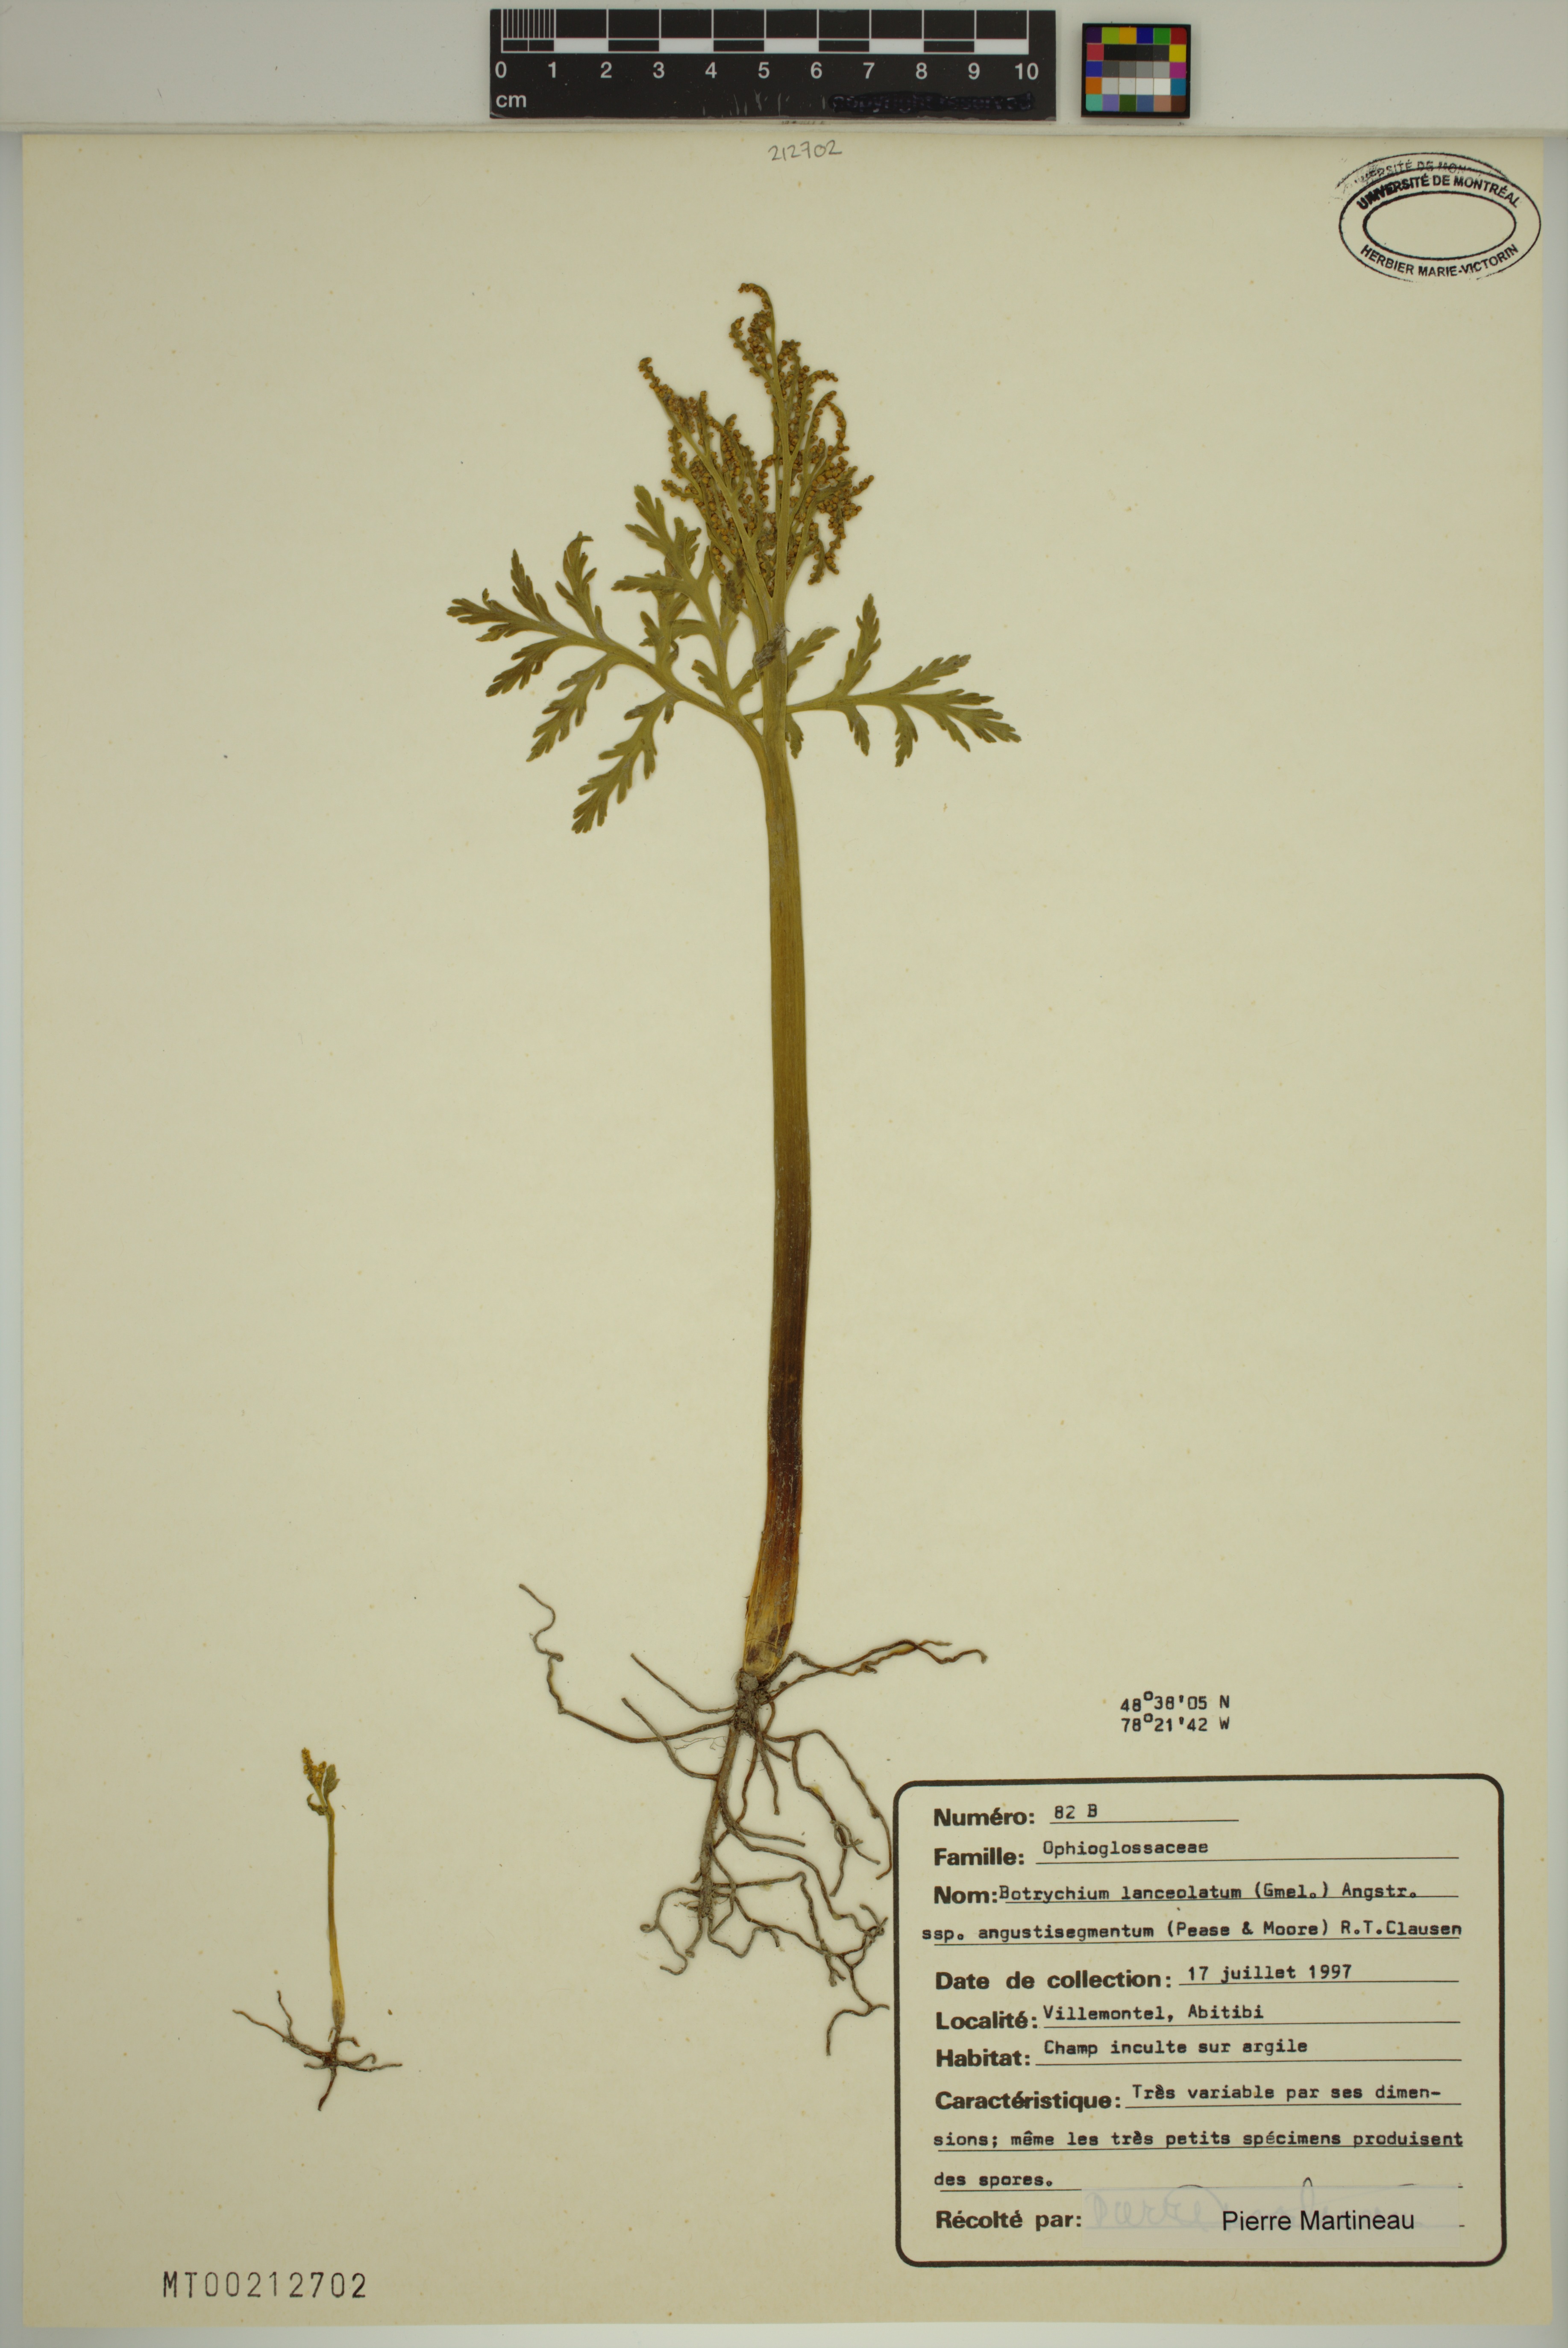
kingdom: Plantae
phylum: Tracheophyta
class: Polypodiopsida
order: Ophioglossales
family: Ophioglossaceae
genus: Botrychium
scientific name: Botrychium angustisegmentum
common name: Narrow triangle moonwort
